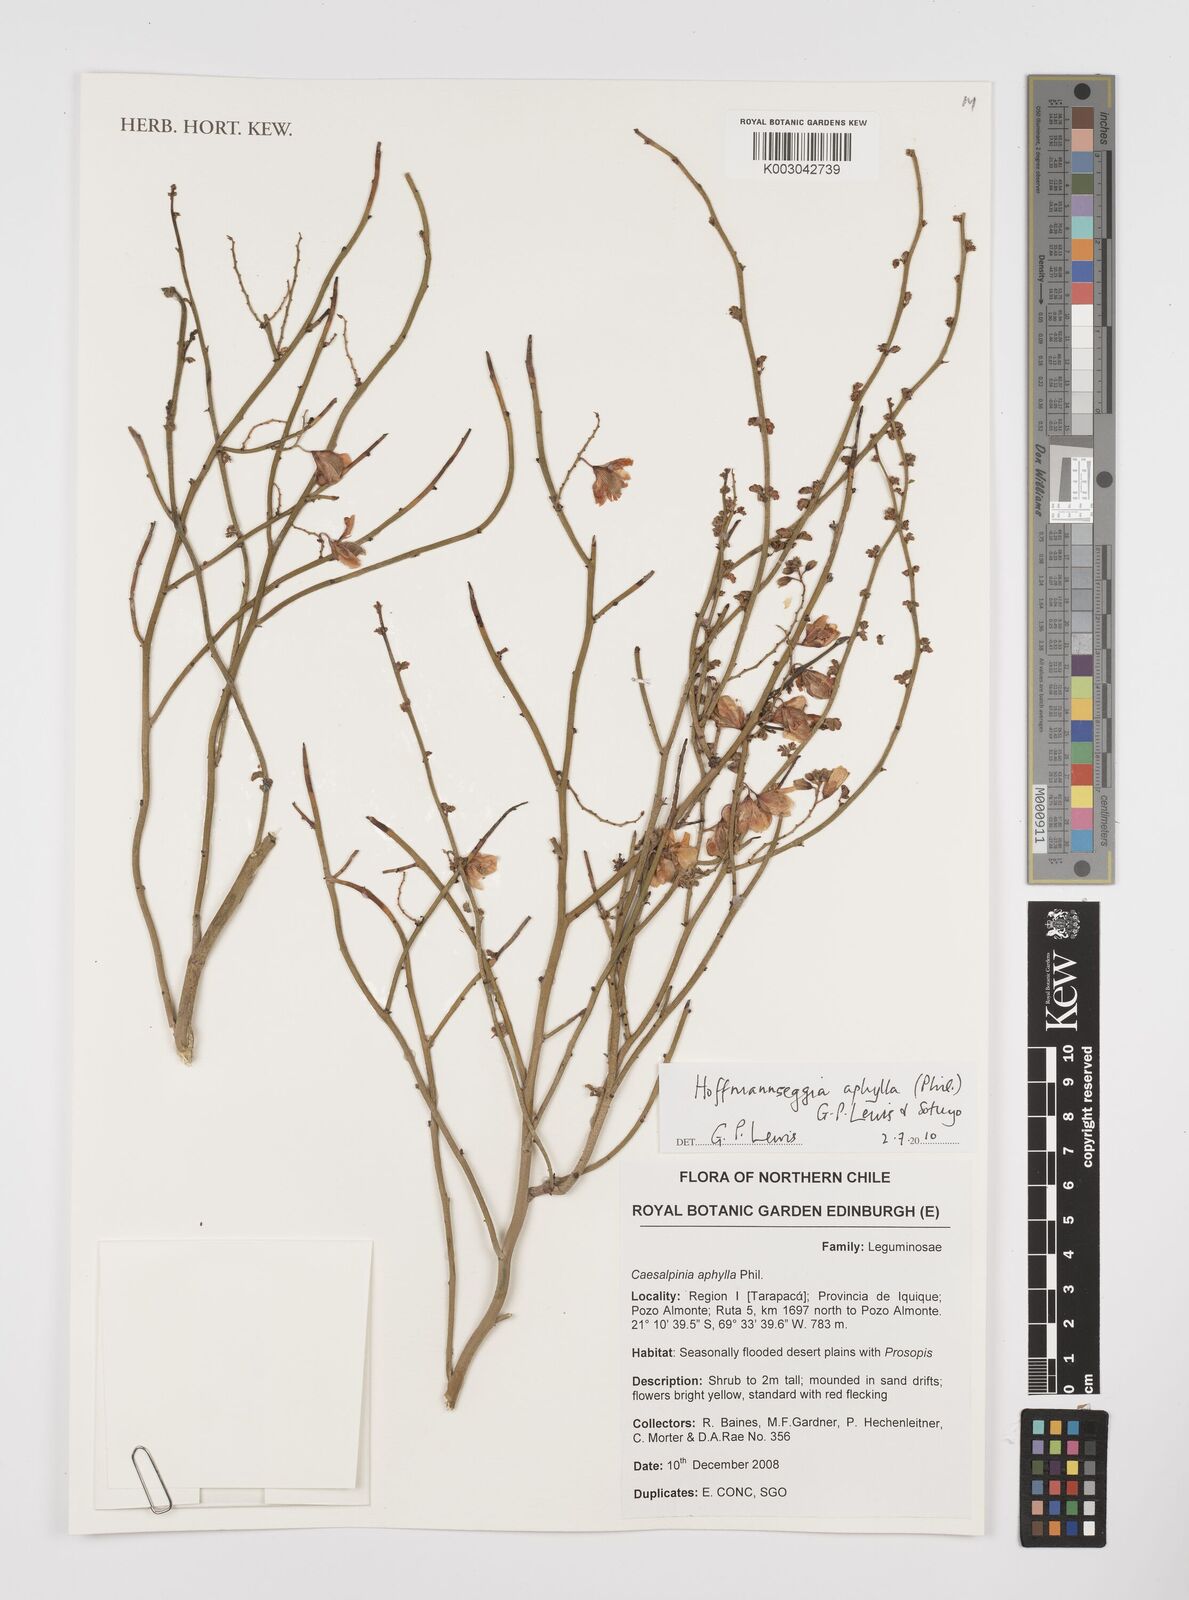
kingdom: Plantae
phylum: Tracheophyta
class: Magnoliopsida
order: Fabales
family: Fabaceae
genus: Hoffmannseggia
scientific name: Hoffmannseggia aphylla
